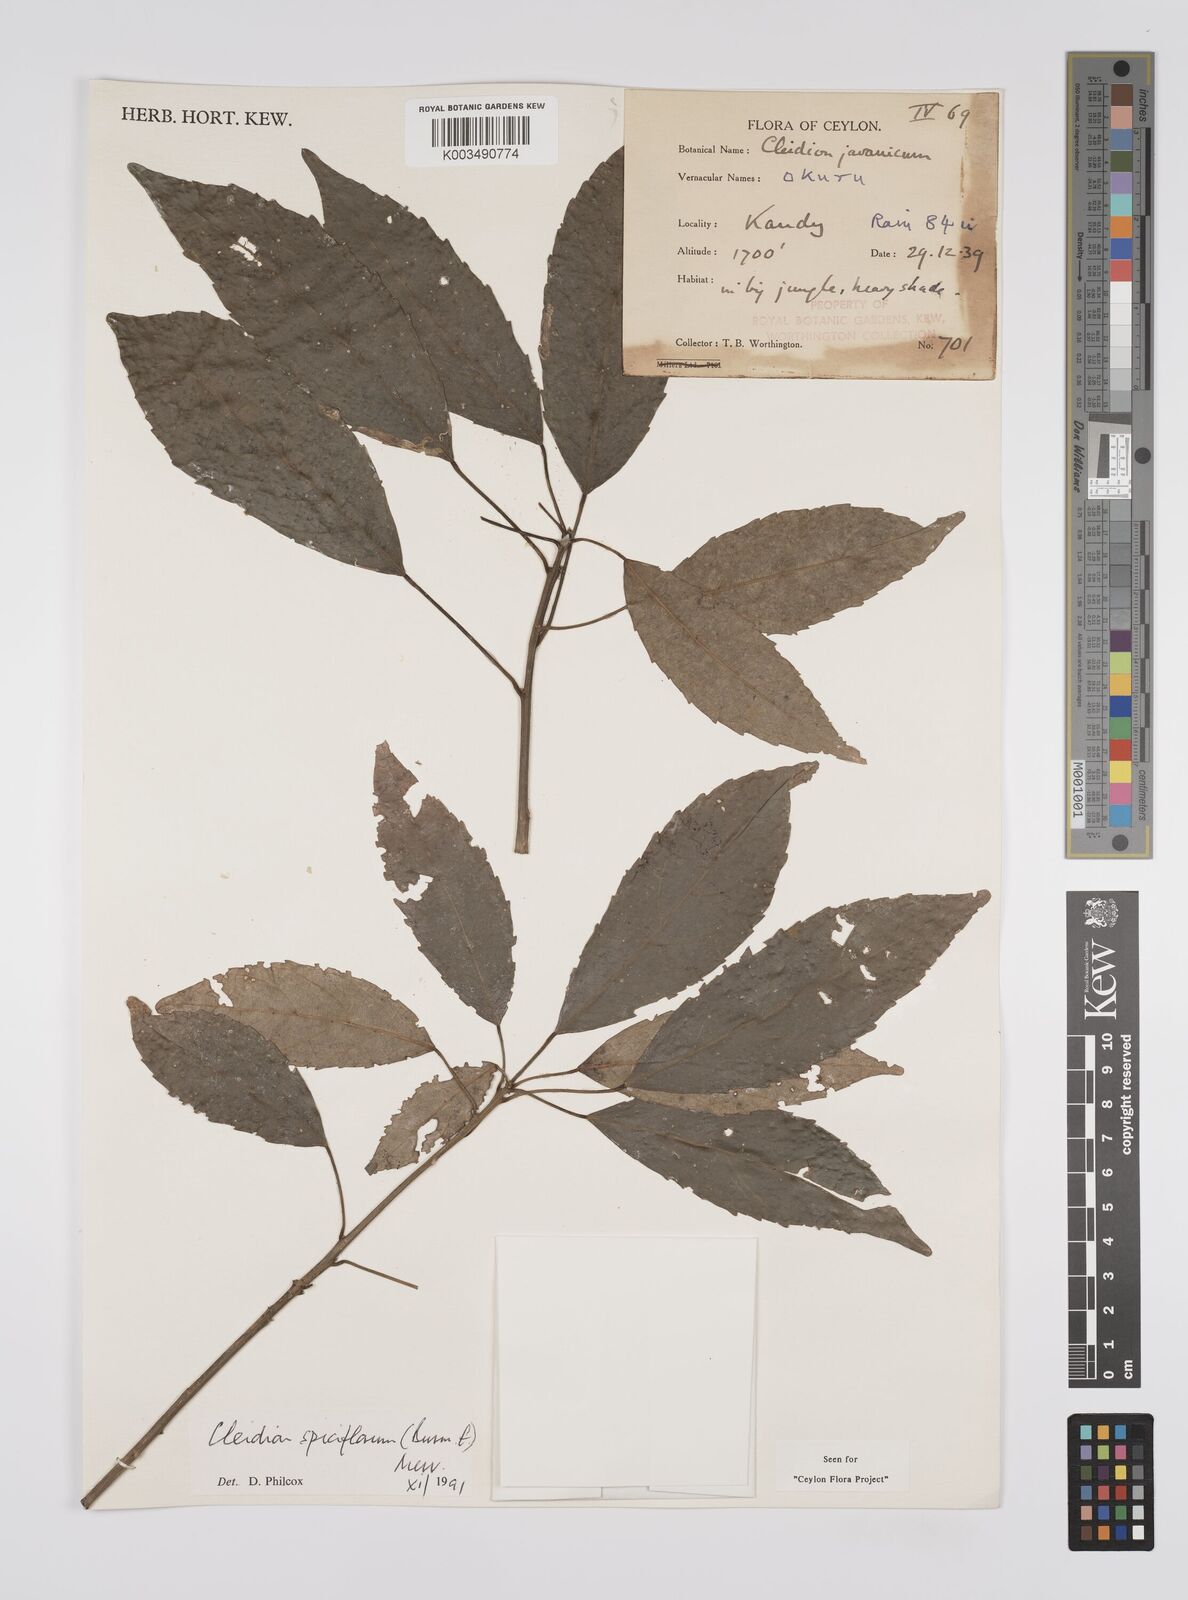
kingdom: Plantae
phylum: Tracheophyta
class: Magnoliopsida
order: Malpighiales
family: Euphorbiaceae
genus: Cleidion
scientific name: Cleidion javanicum
